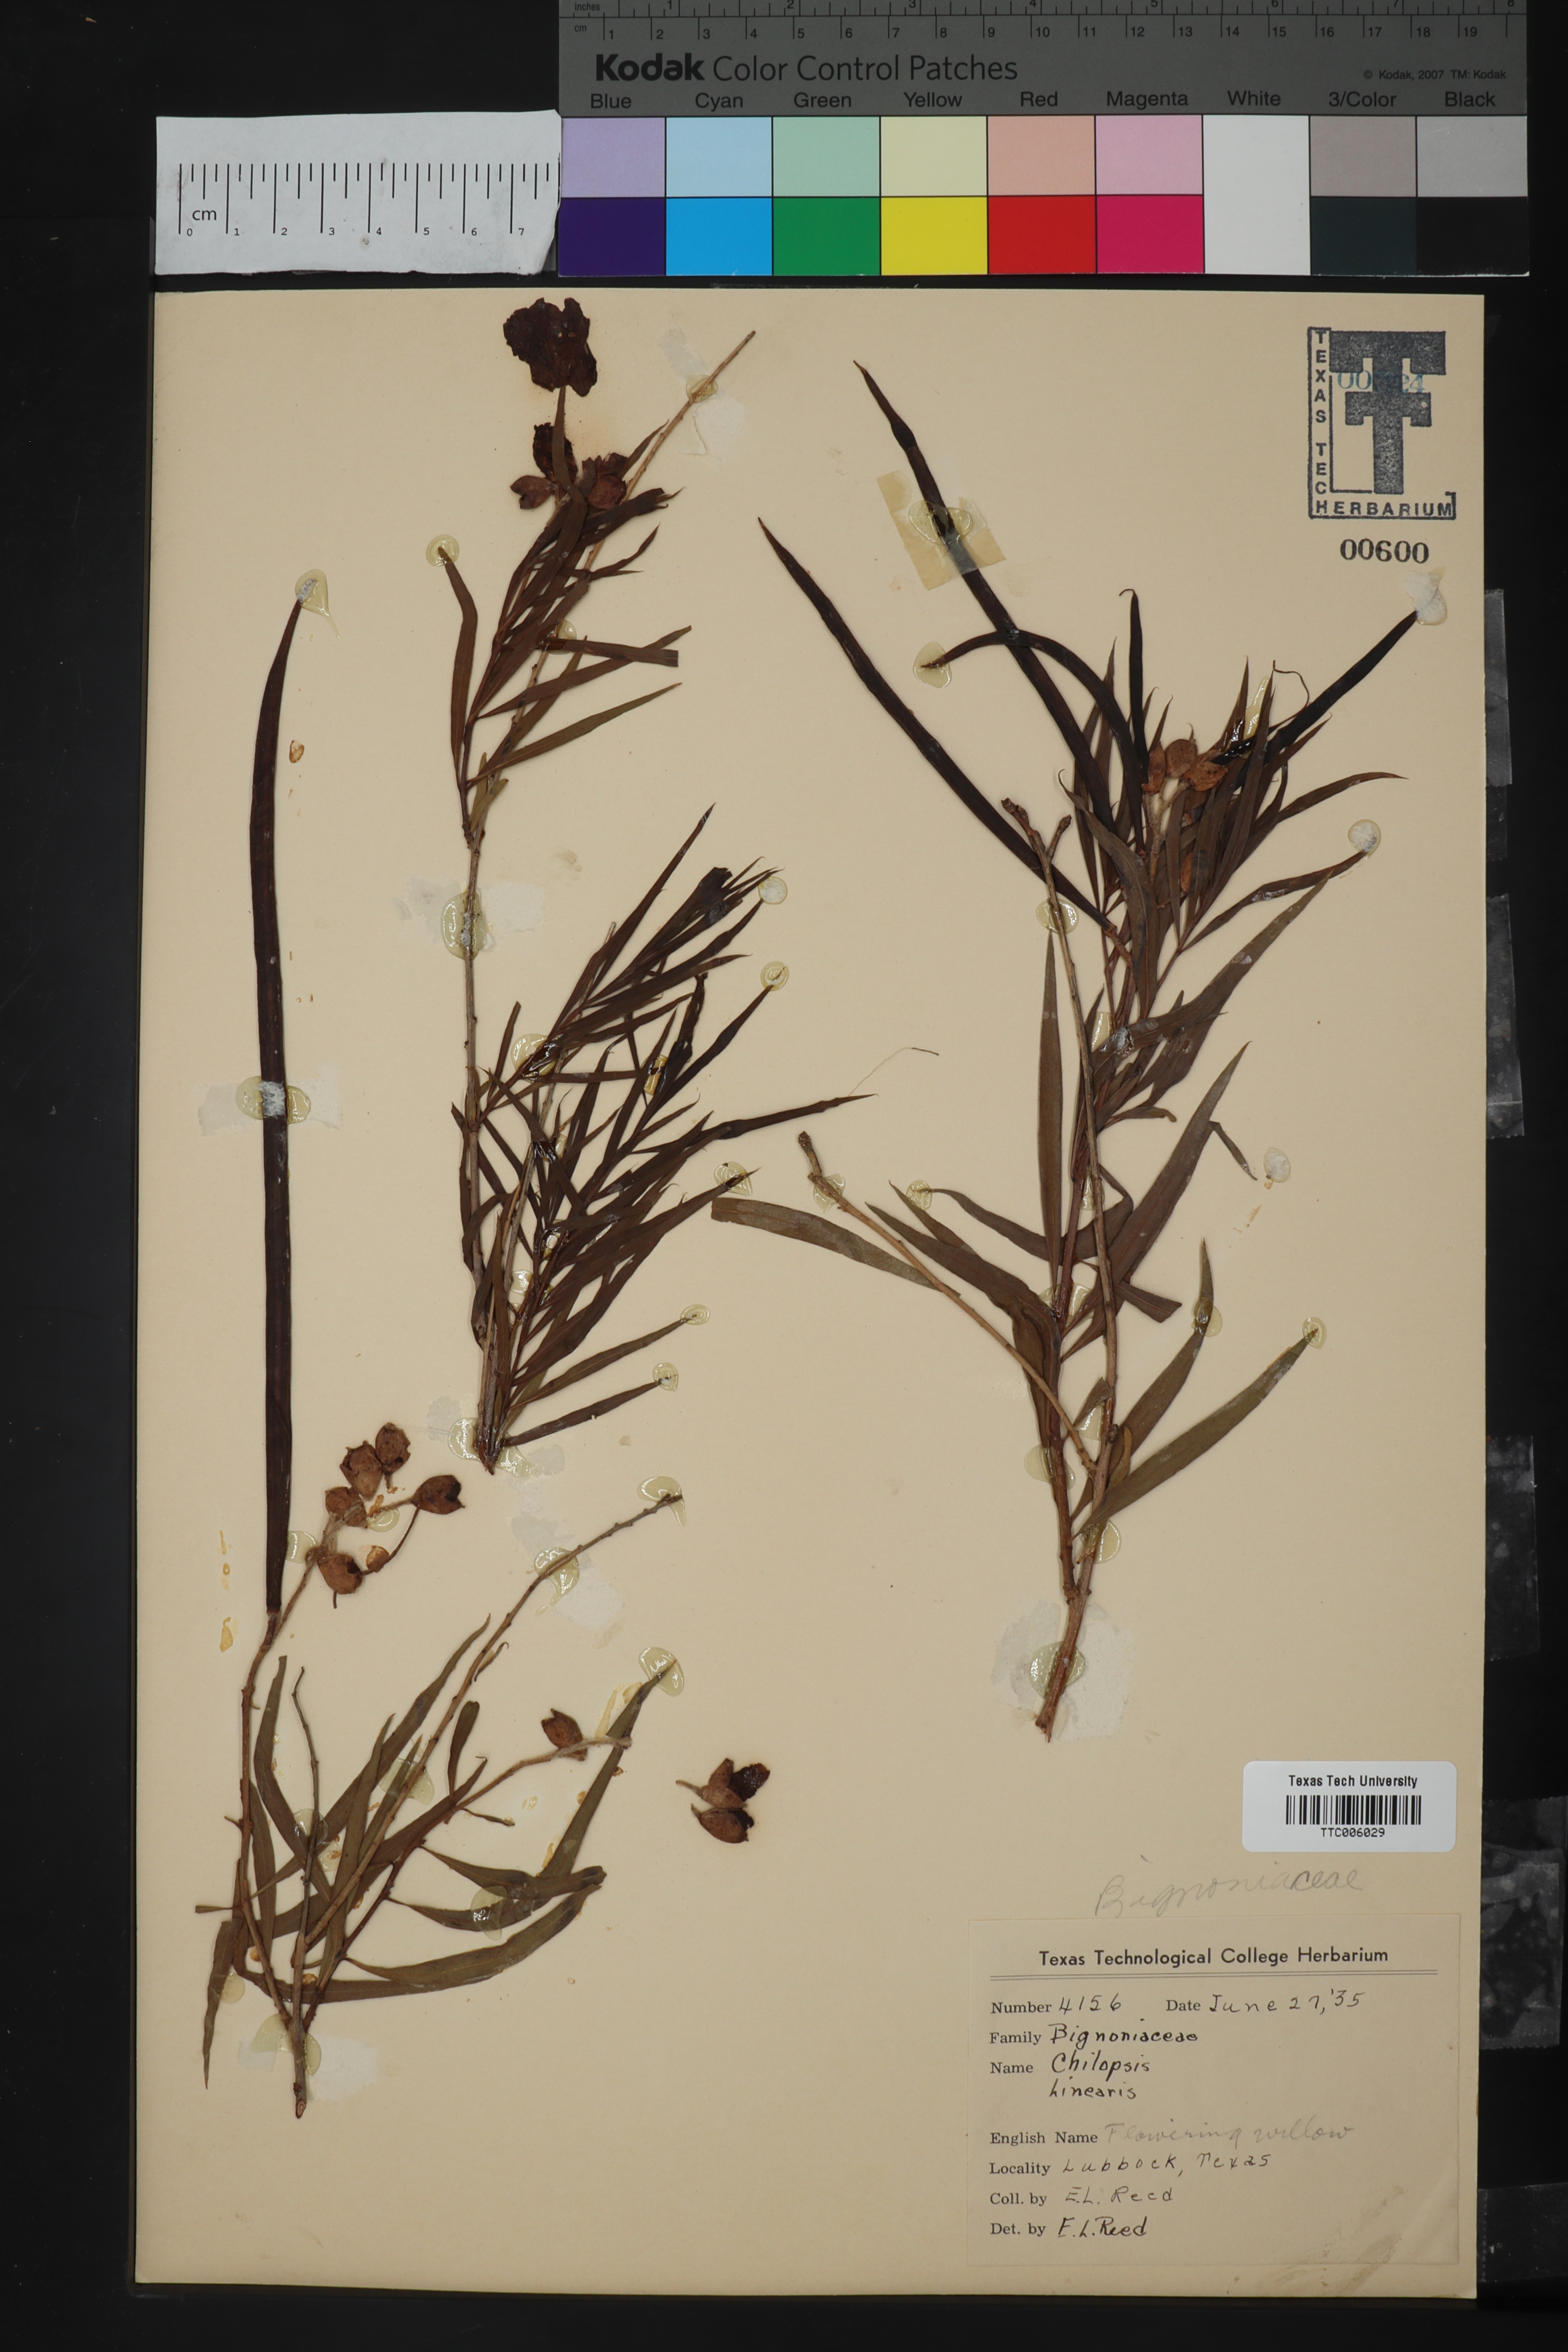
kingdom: Plantae
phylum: Tracheophyta
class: Magnoliopsida
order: Lamiales
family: Bignoniaceae
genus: Chilopsis
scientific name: Chilopsis linearis
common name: Desert-willow
